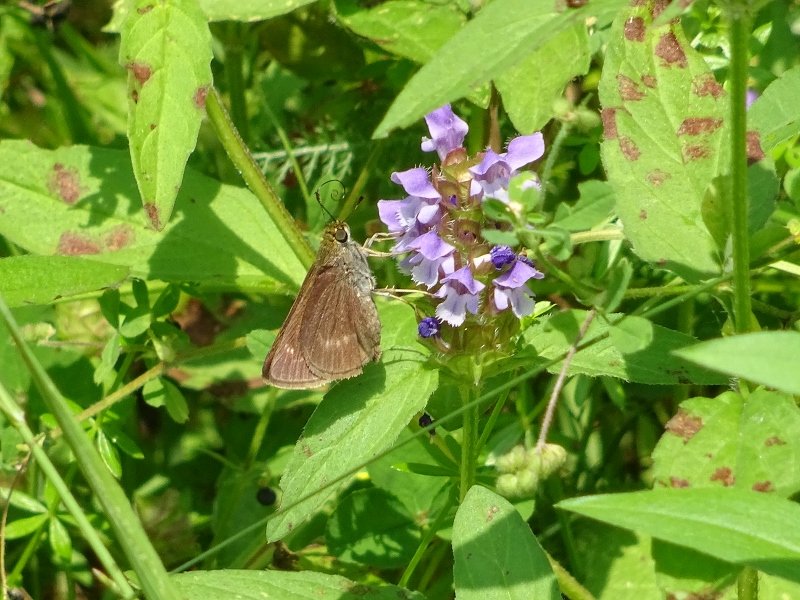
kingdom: Animalia
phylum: Arthropoda
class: Insecta
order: Lepidoptera
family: Hesperiidae
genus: Euphyes
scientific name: Euphyes
